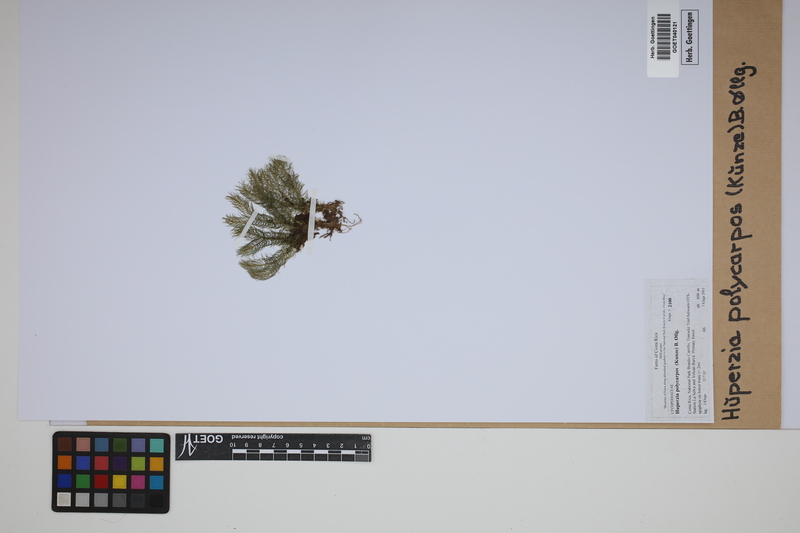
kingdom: Plantae
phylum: Tracheophyta
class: Lycopodiopsida
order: Lycopodiales
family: Lycopodiaceae
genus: Phlegmariurus
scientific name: Phlegmariurus
